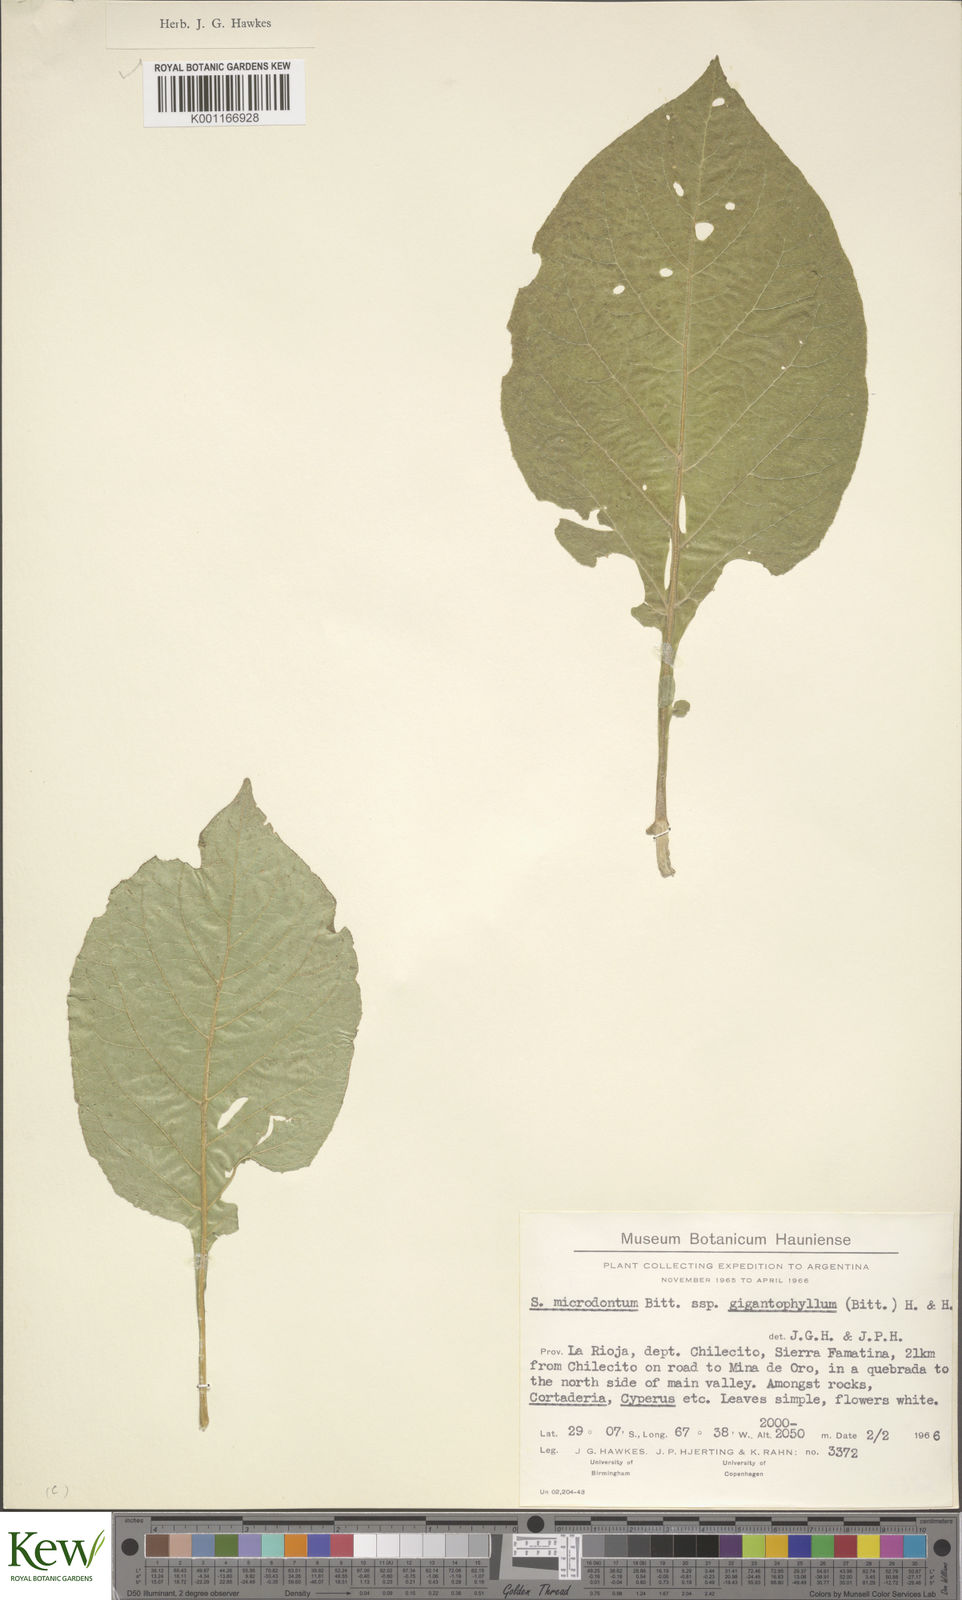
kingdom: Plantae
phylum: Tracheophyta
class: Magnoliopsida
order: Solanales
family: Solanaceae
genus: Solanum
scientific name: Solanum microdontum
